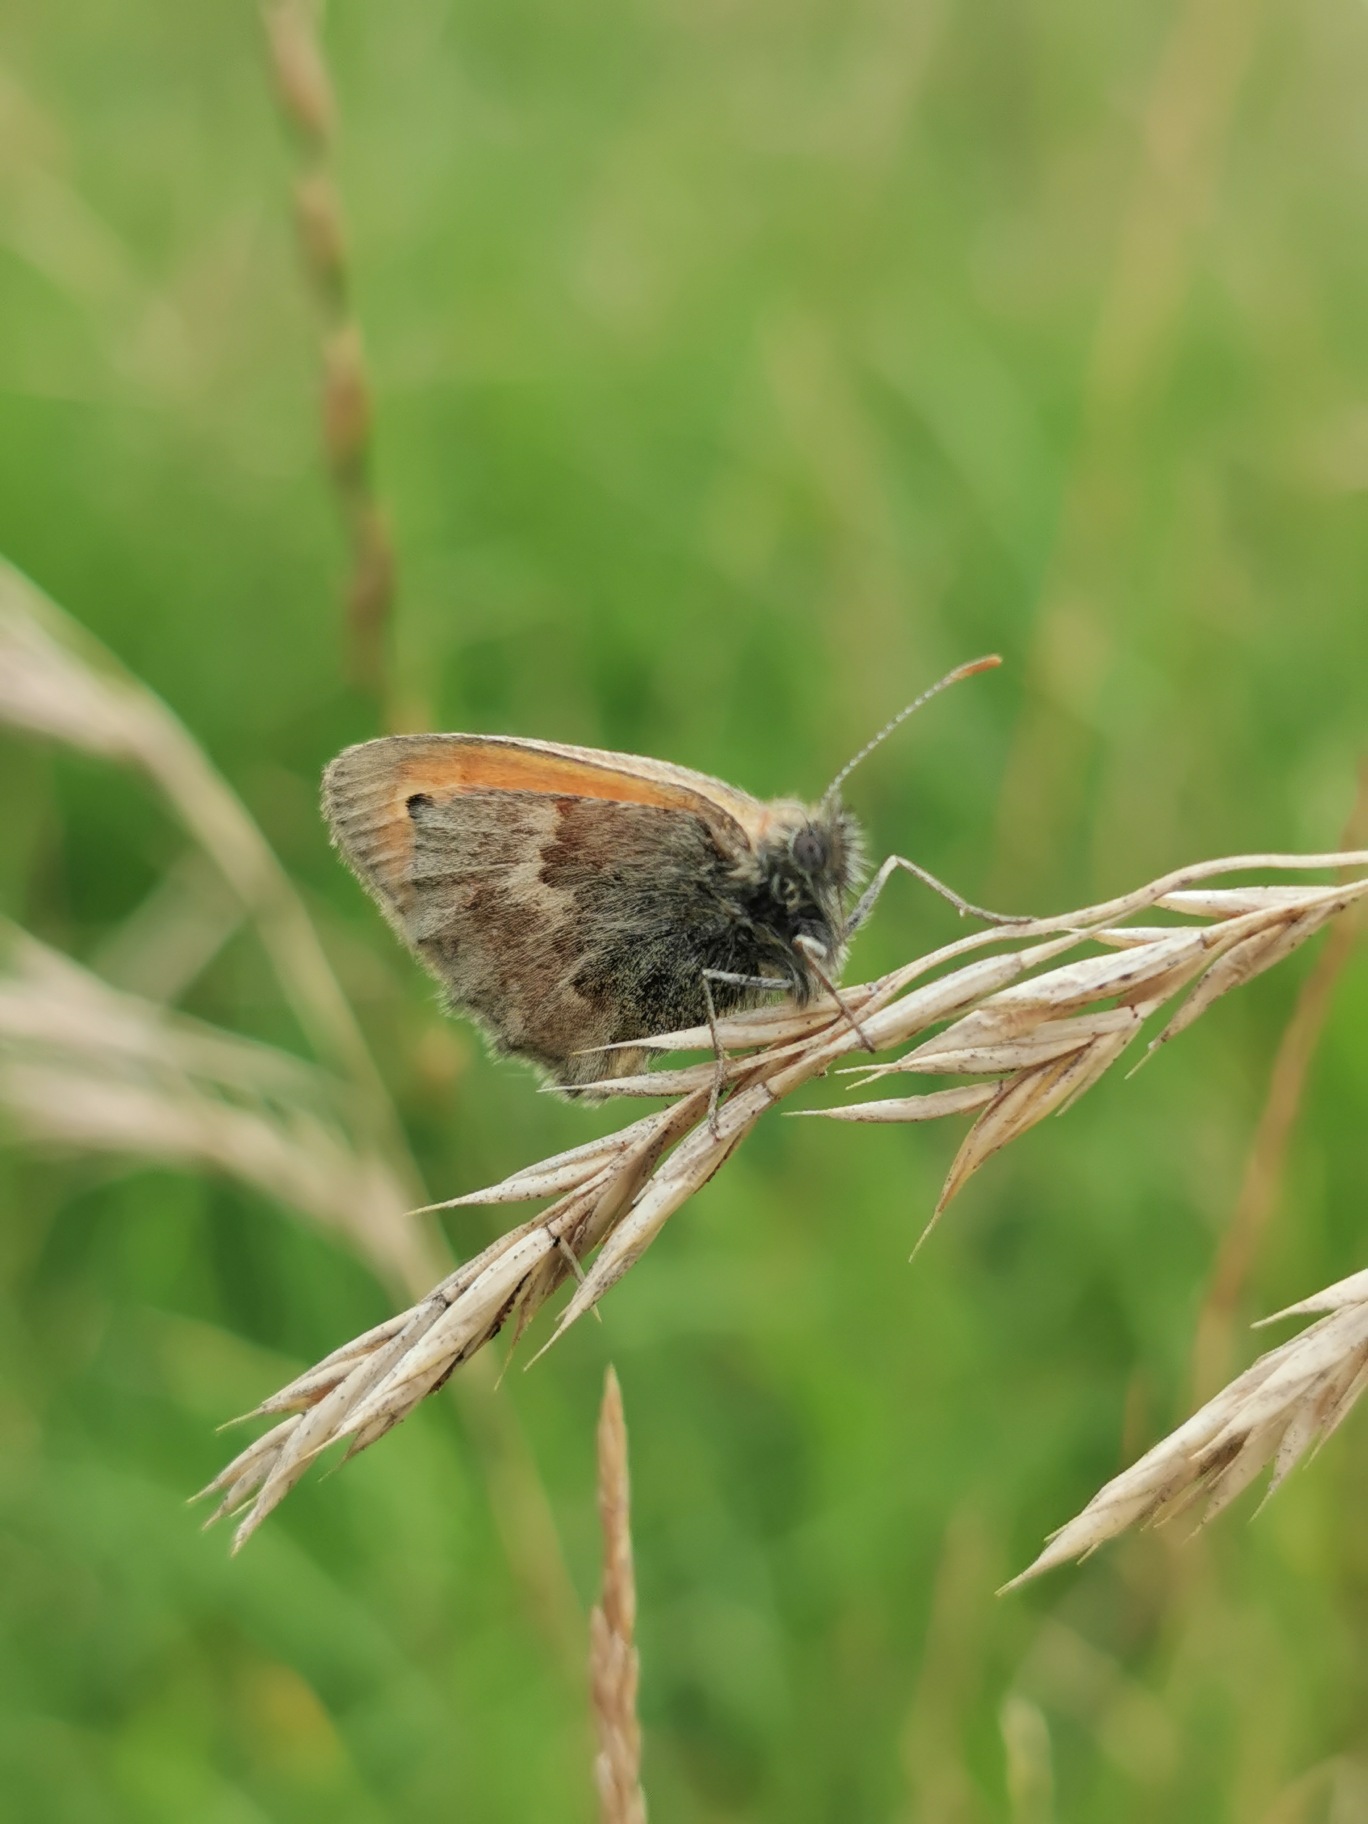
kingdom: Animalia
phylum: Arthropoda
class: Insecta
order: Lepidoptera
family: Nymphalidae
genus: Coenonympha
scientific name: Coenonympha pamphilus
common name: Okkergul randøje
